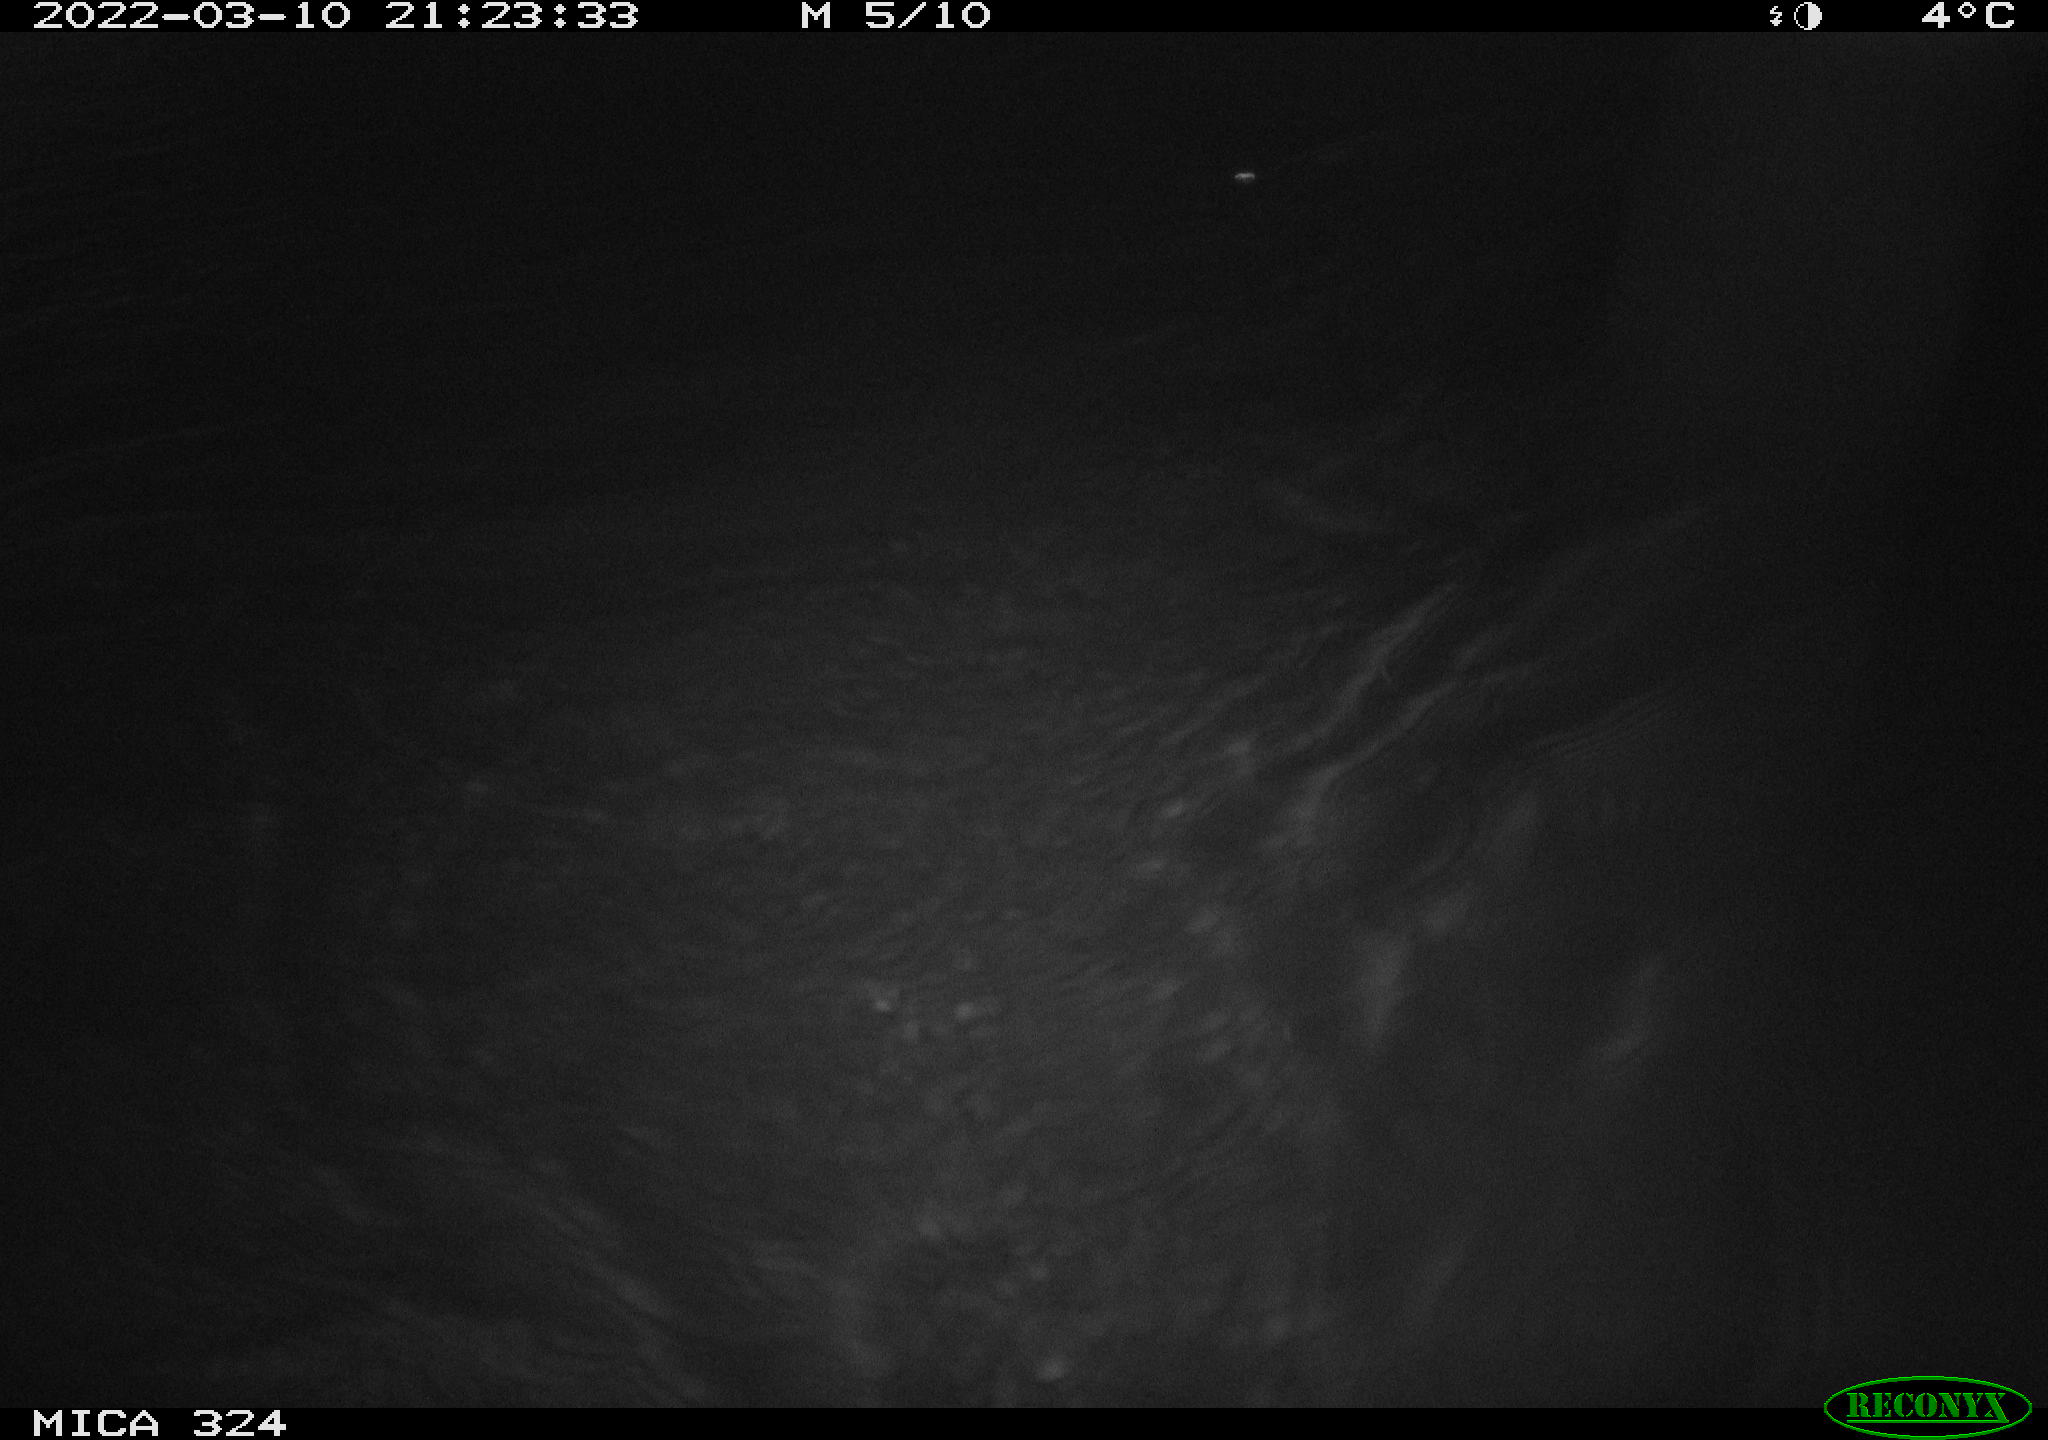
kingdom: Animalia
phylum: Chordata
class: Mammalia
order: Rodentia
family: Cricetidae
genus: Ondatra
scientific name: Ondatra zibethicus
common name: Muskrat
